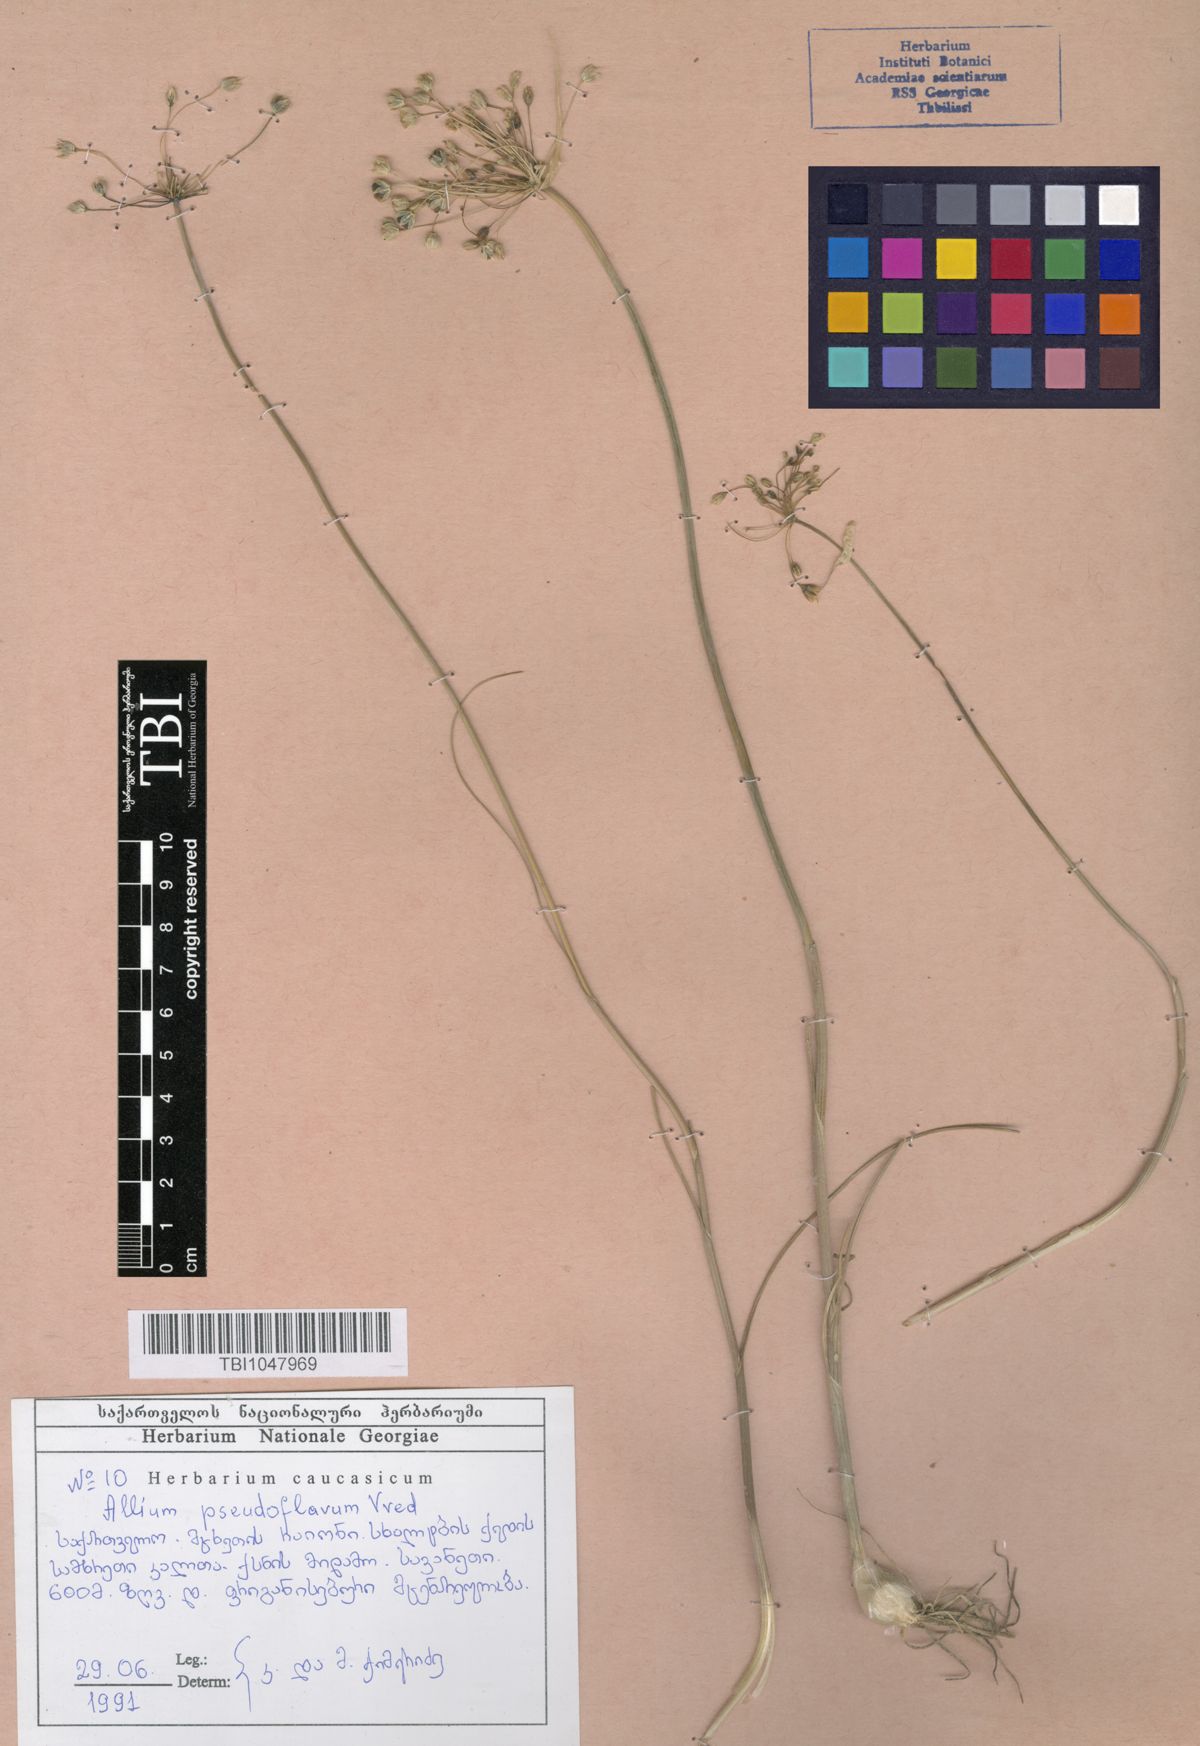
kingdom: Plantae
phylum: Tracheophyta
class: Liliopsida
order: Asparagales
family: Amaryllidaceae
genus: Allium
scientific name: Allium pseudoflavum
